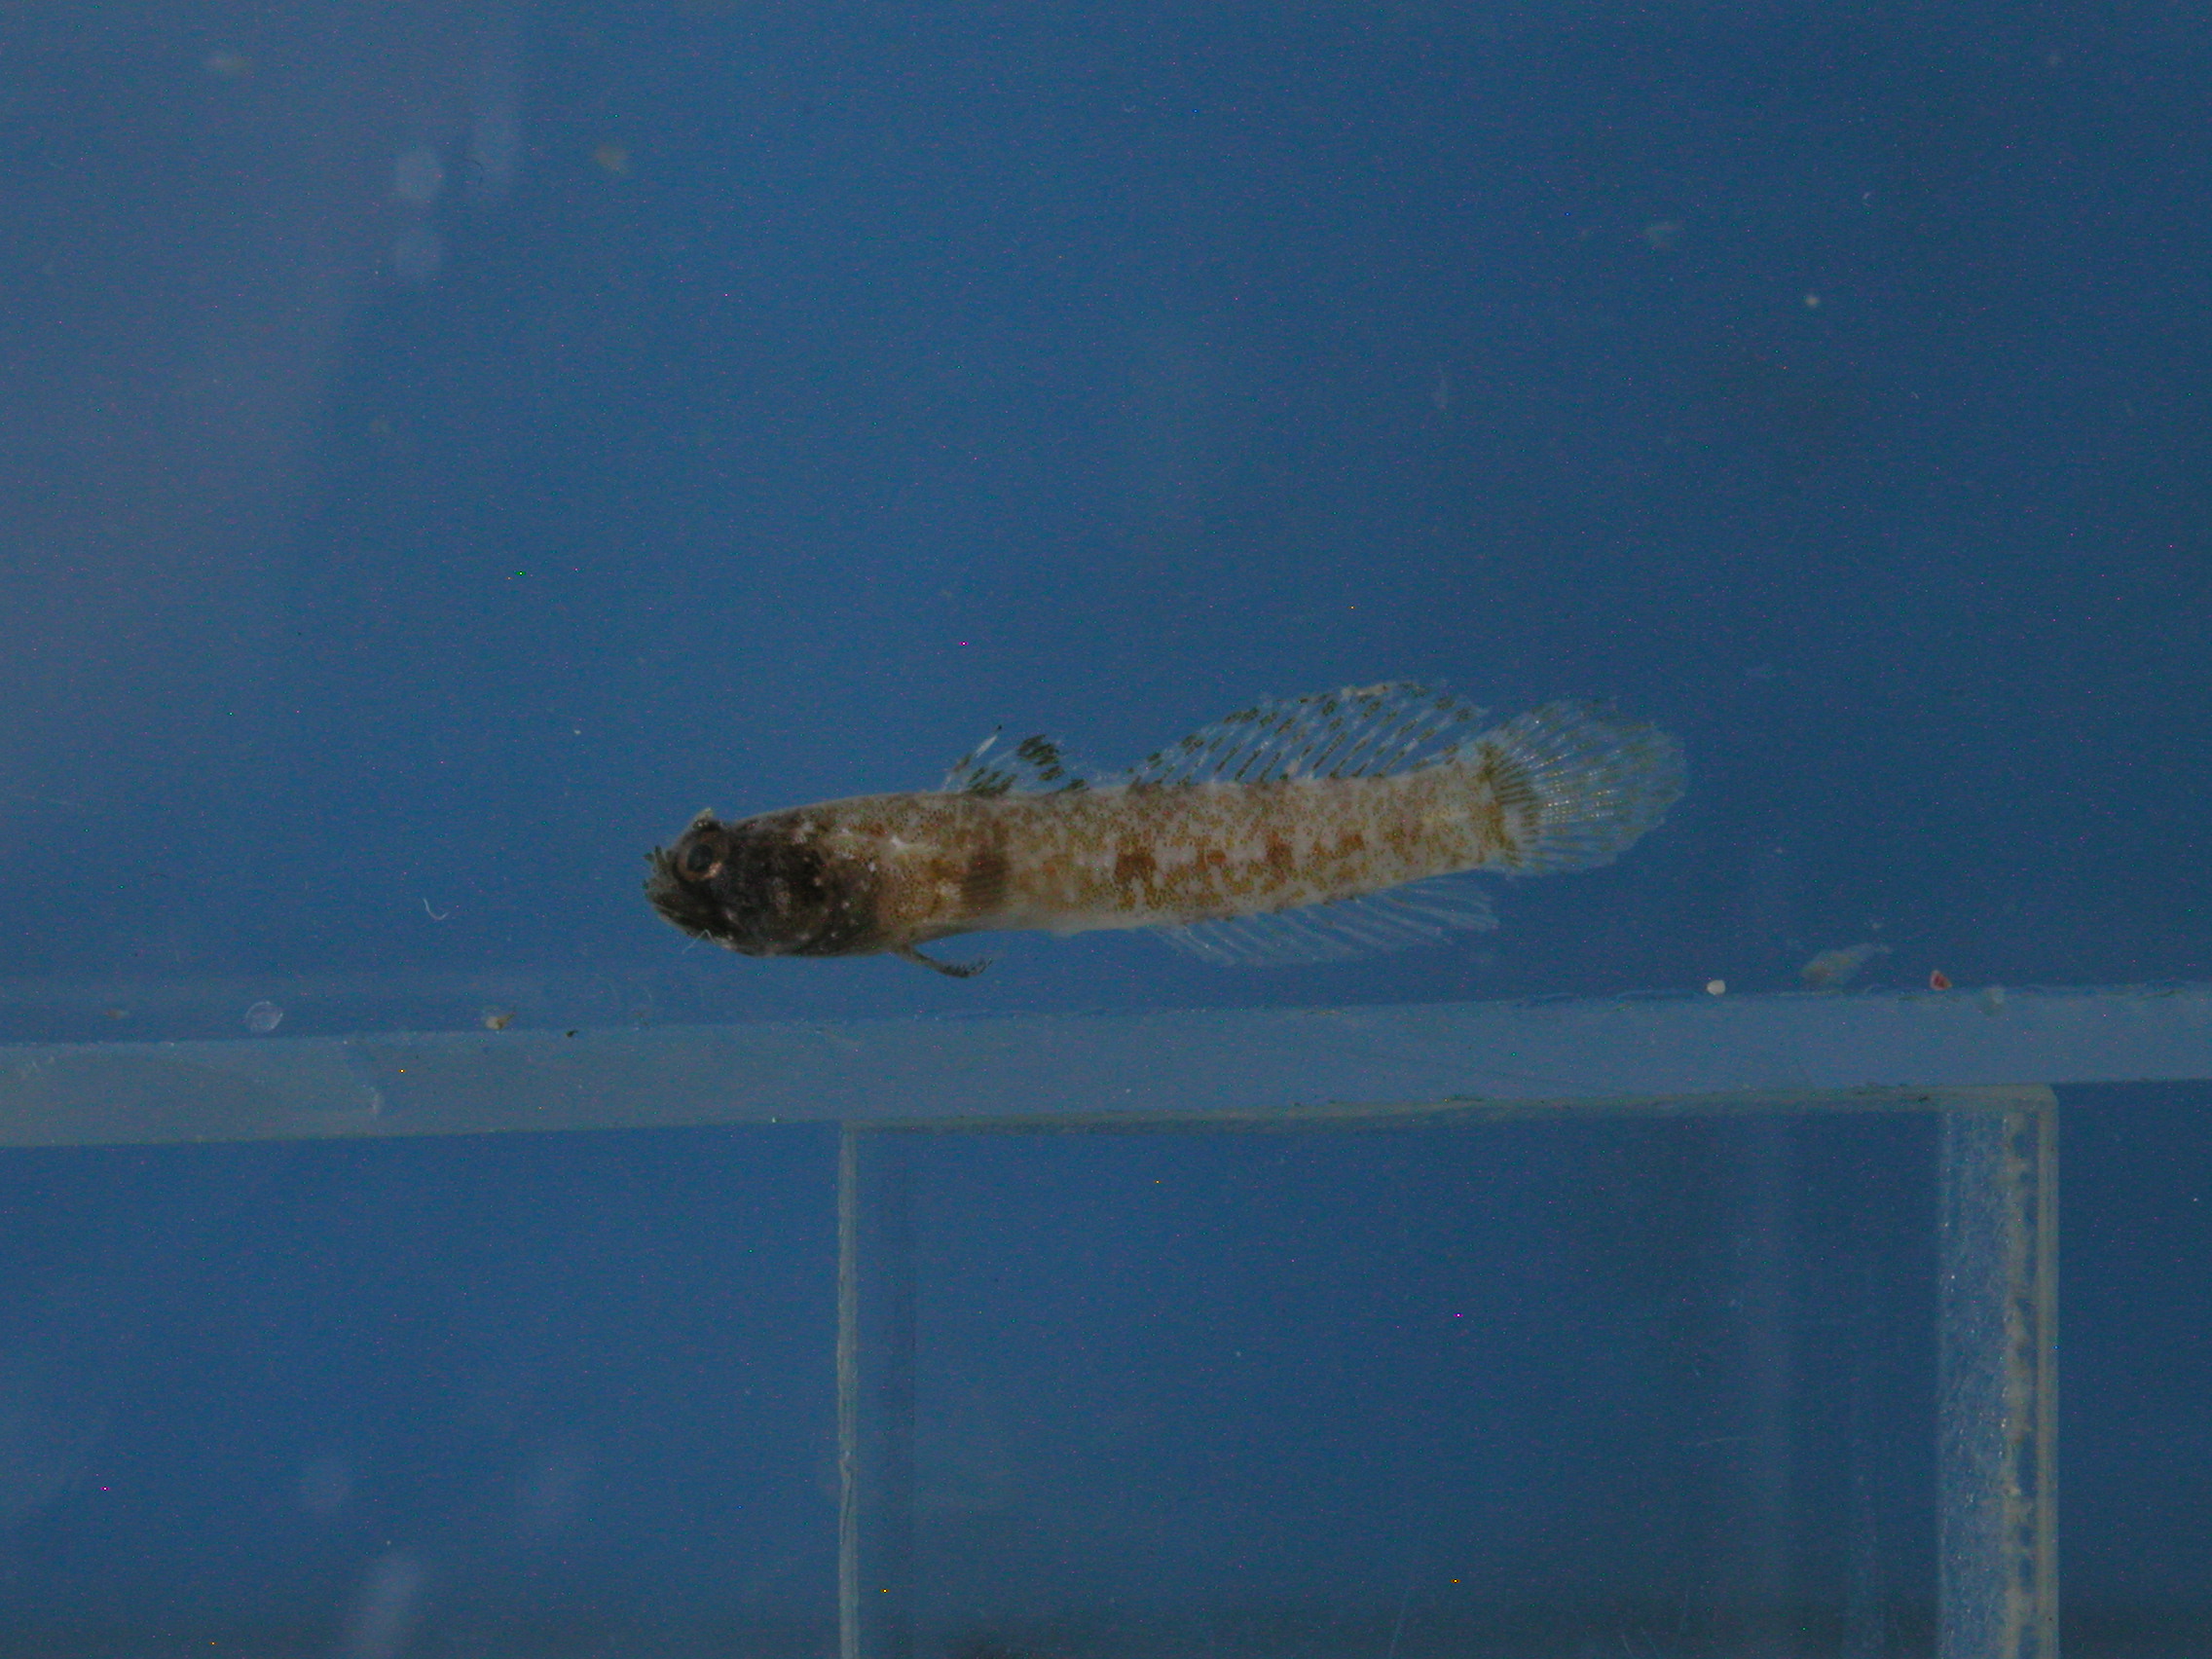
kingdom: Animalia
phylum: Chordata
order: Perciformes
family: Gobiidae
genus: Hetereleotris
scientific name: Hetereleotris tentaculata
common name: Locusthead
